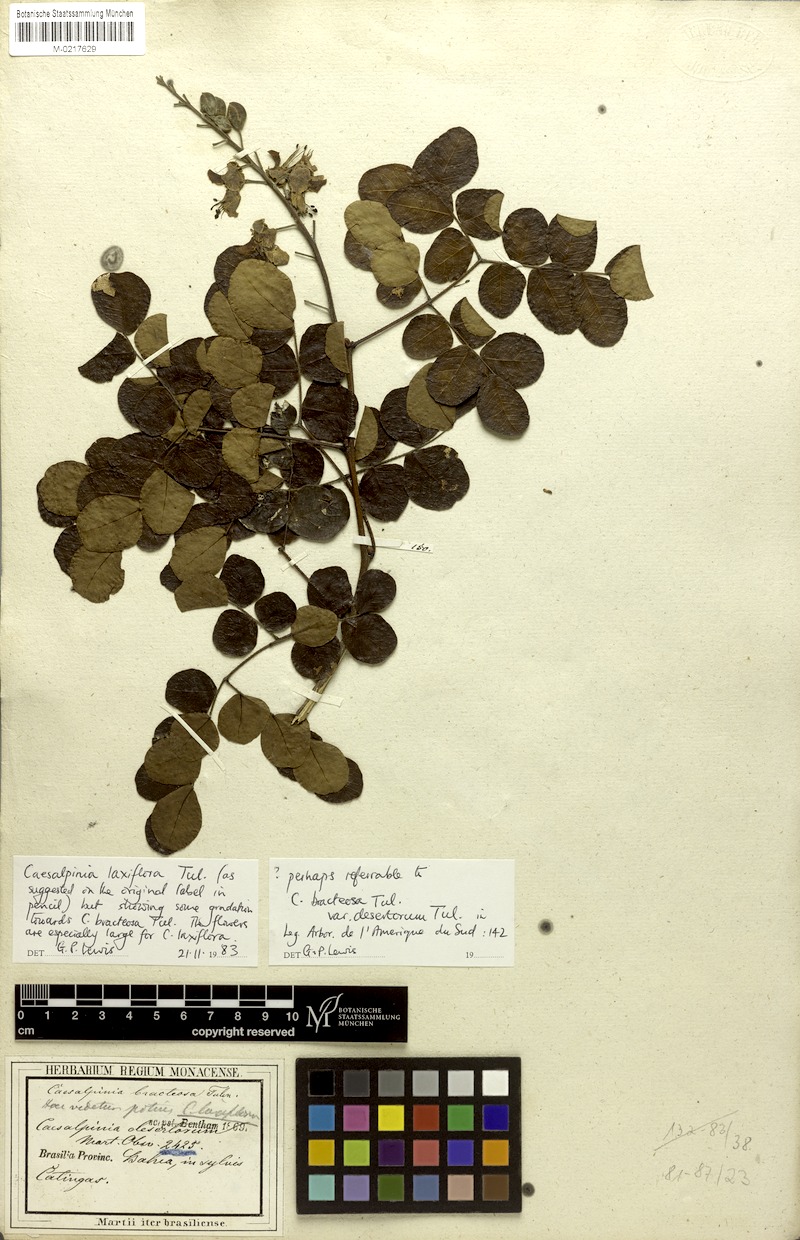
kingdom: Plantae
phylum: Tracheophyta
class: Magnoliopsida
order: Fabales
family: Fabaceae
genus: Cenostigma
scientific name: Cenostigma laxiflorum
